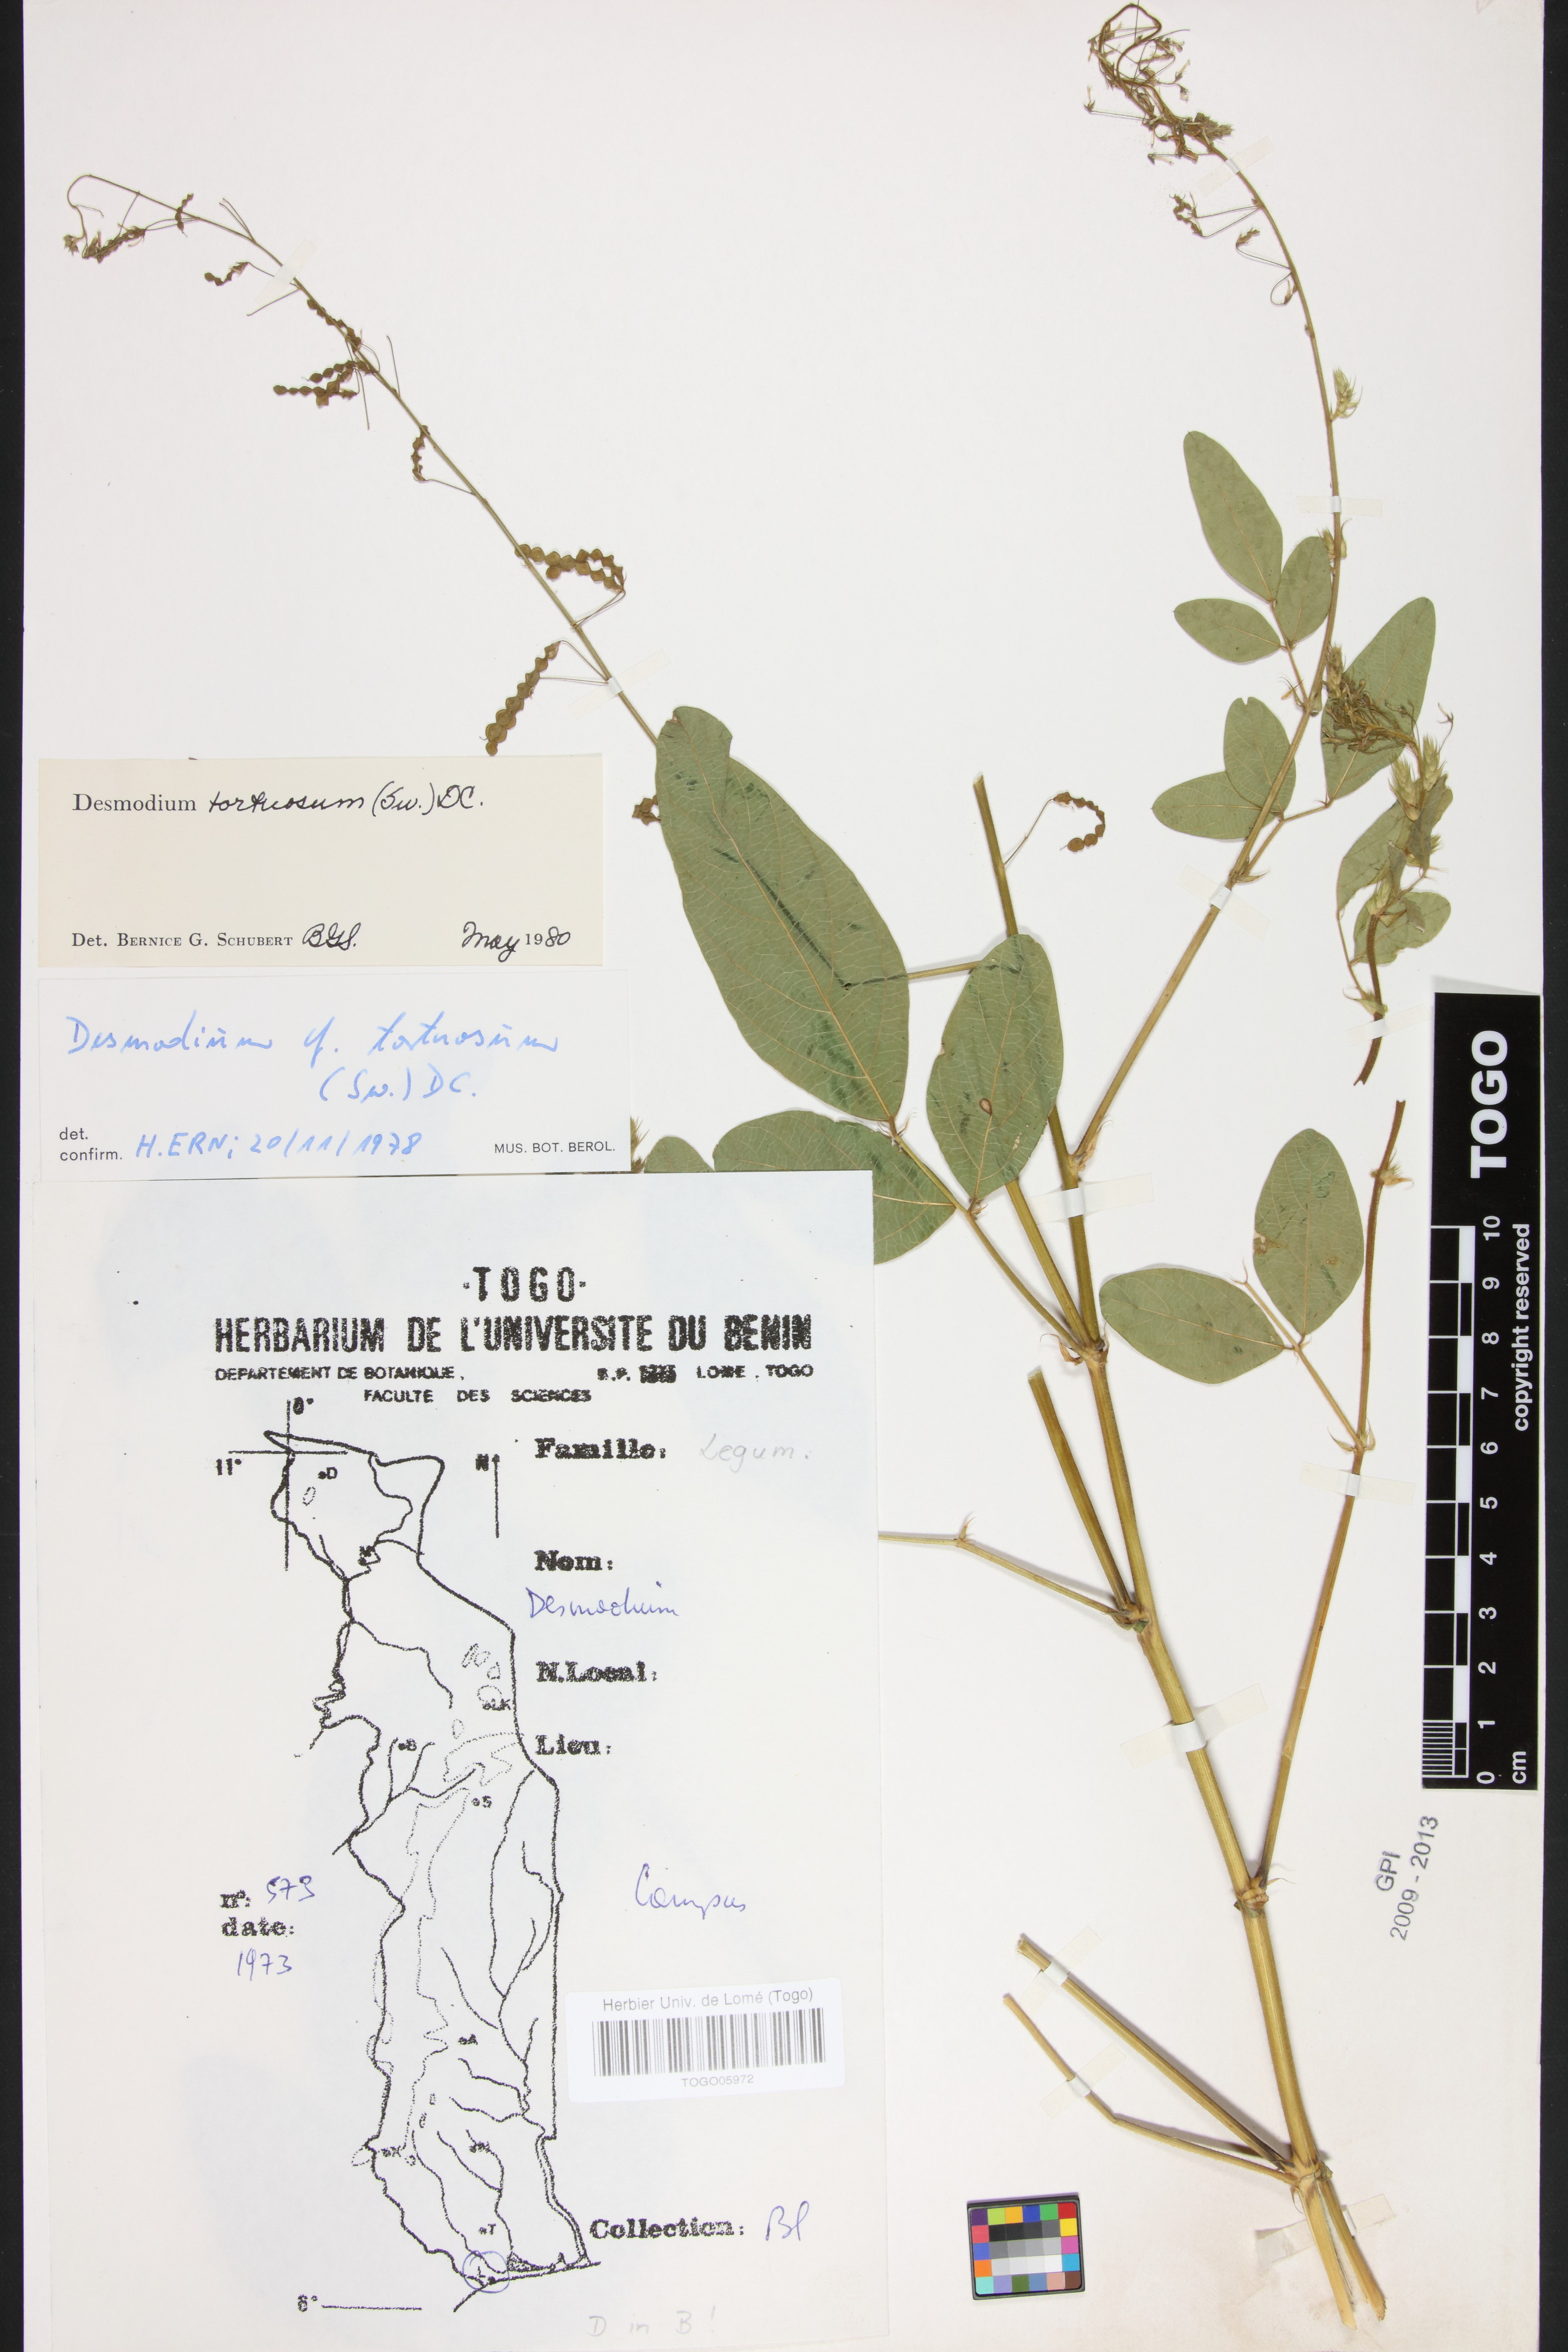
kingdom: Plantae
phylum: Tracheophyta
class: Magnoliopsida
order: Fabales
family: Fabaceae
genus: Desmodium
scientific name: Desmodium tortuosum
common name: Dixie ticktrefoil
